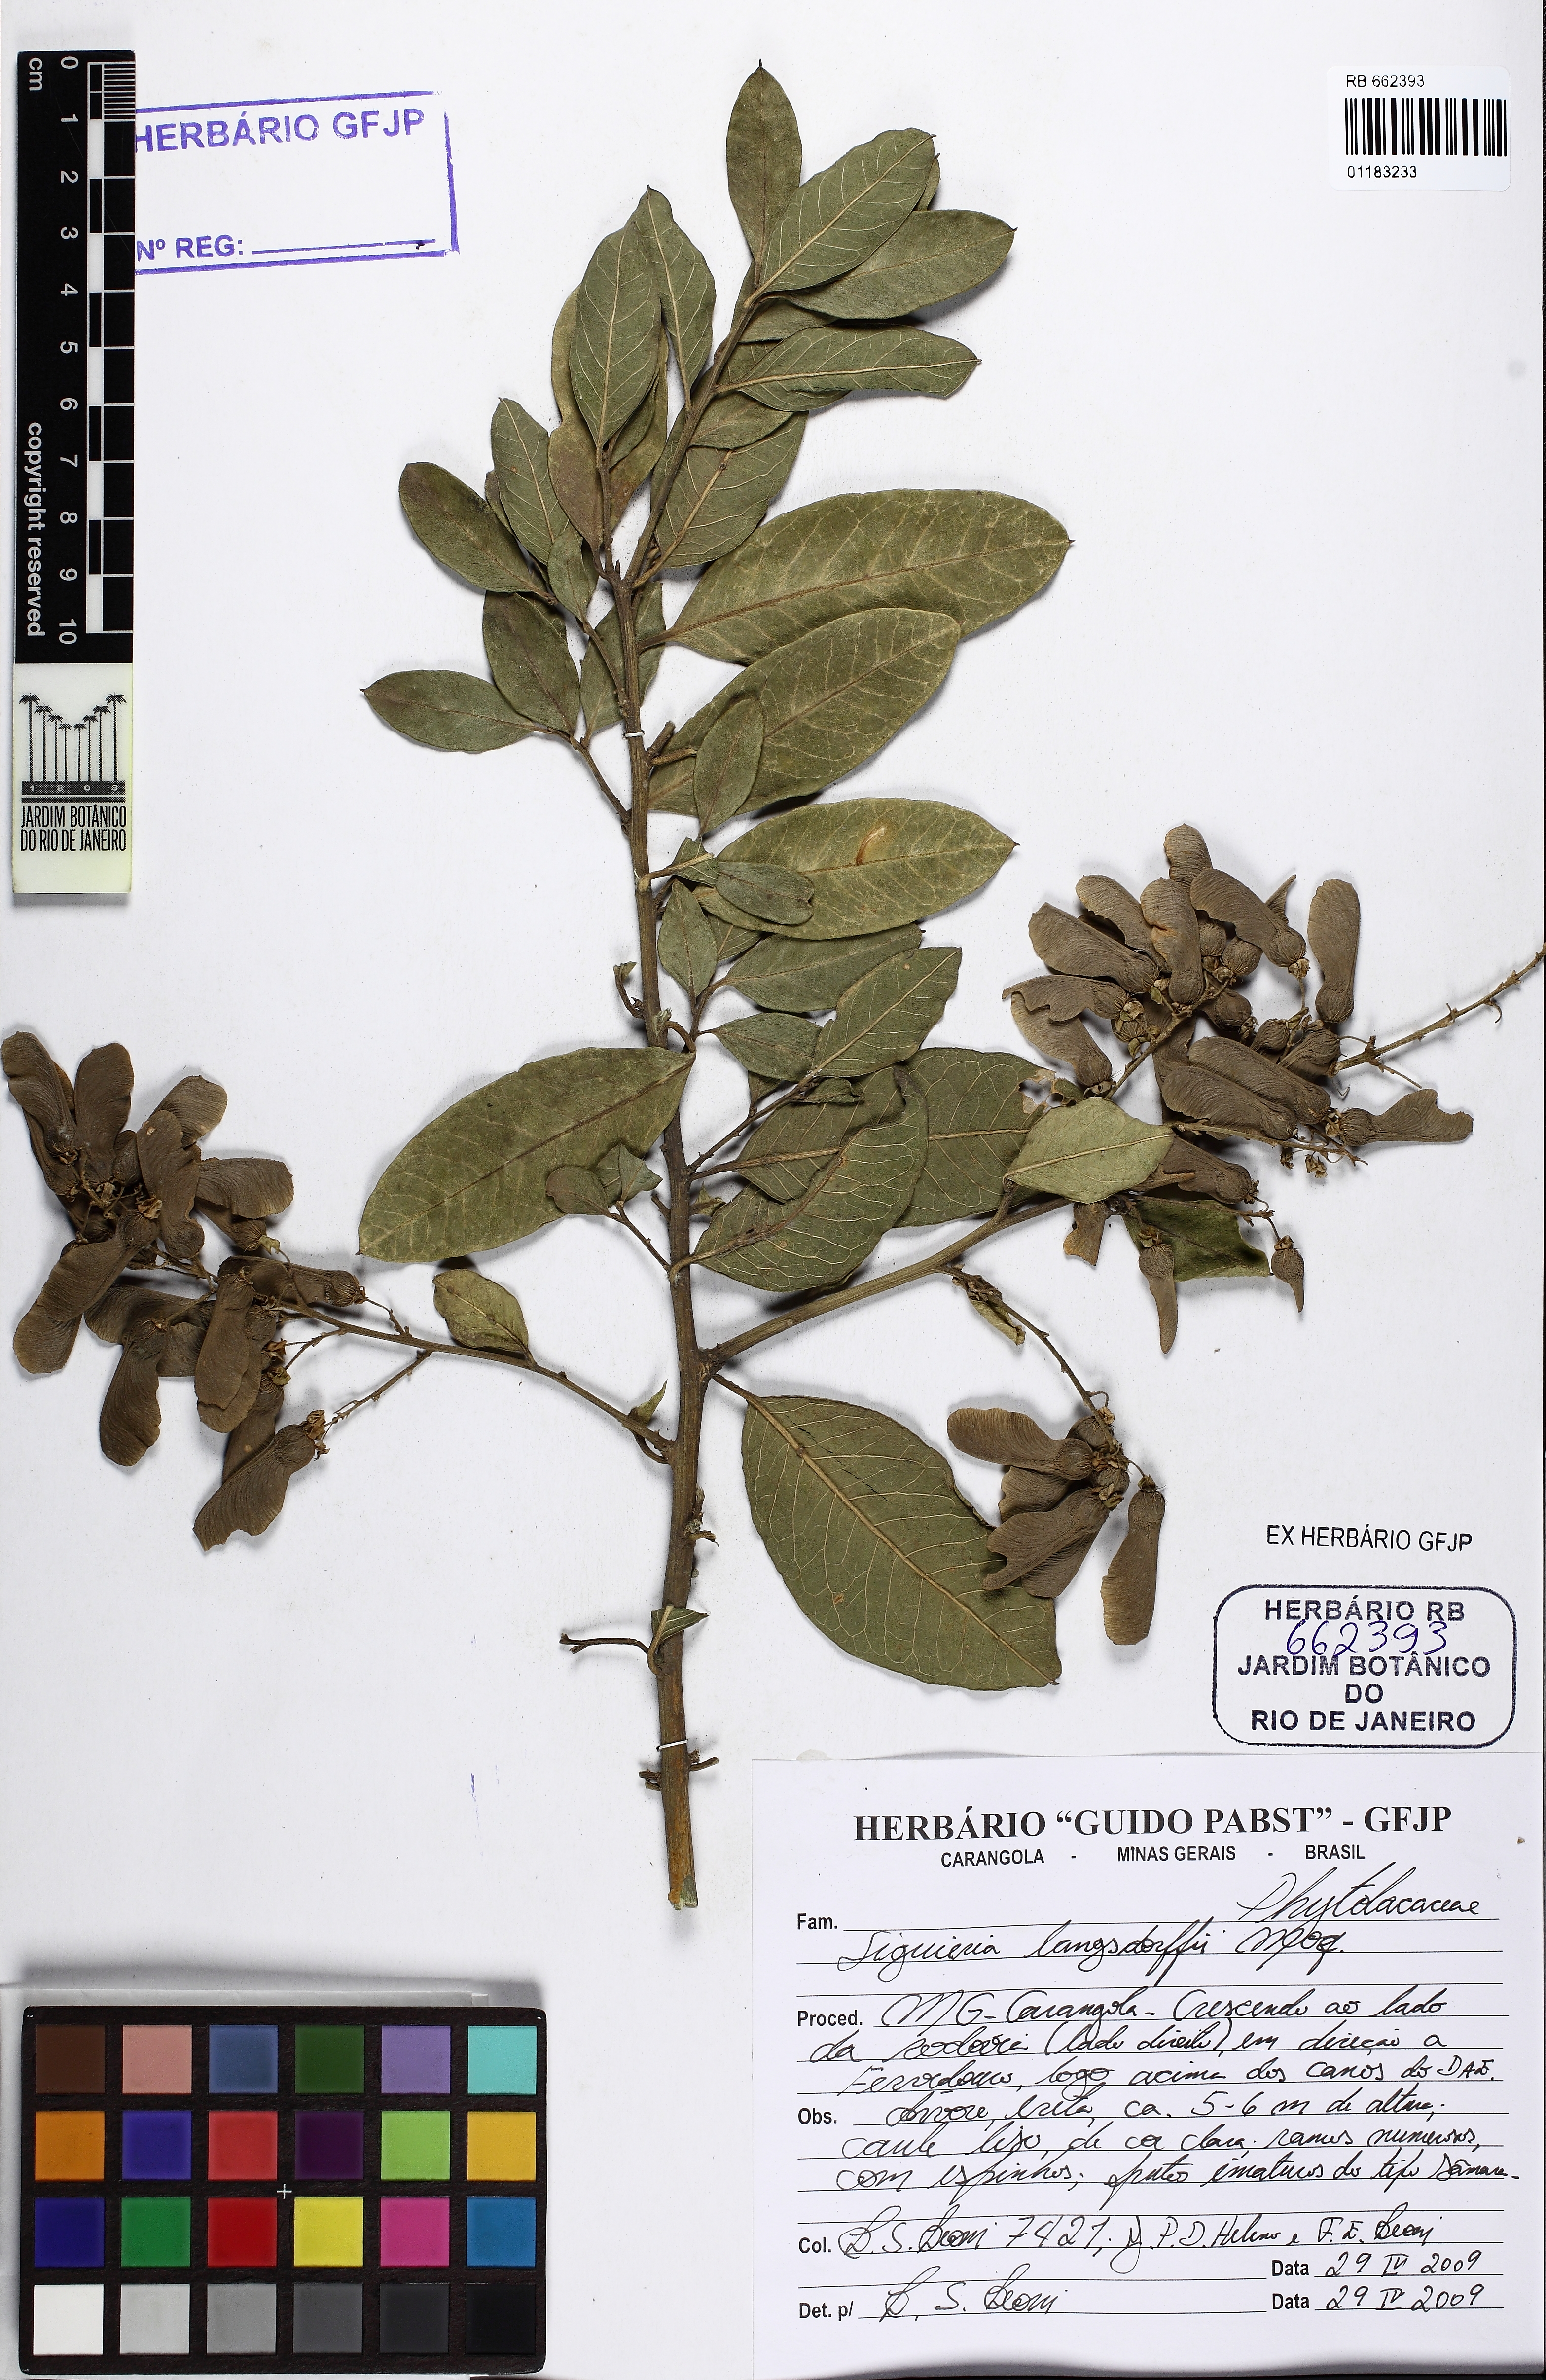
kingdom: Plantae
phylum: Tracheophyta
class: Magnoliopsida
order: Caryophyllales
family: Phytolaccaceae
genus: Seguieria
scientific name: Seguieria langsdorffii
